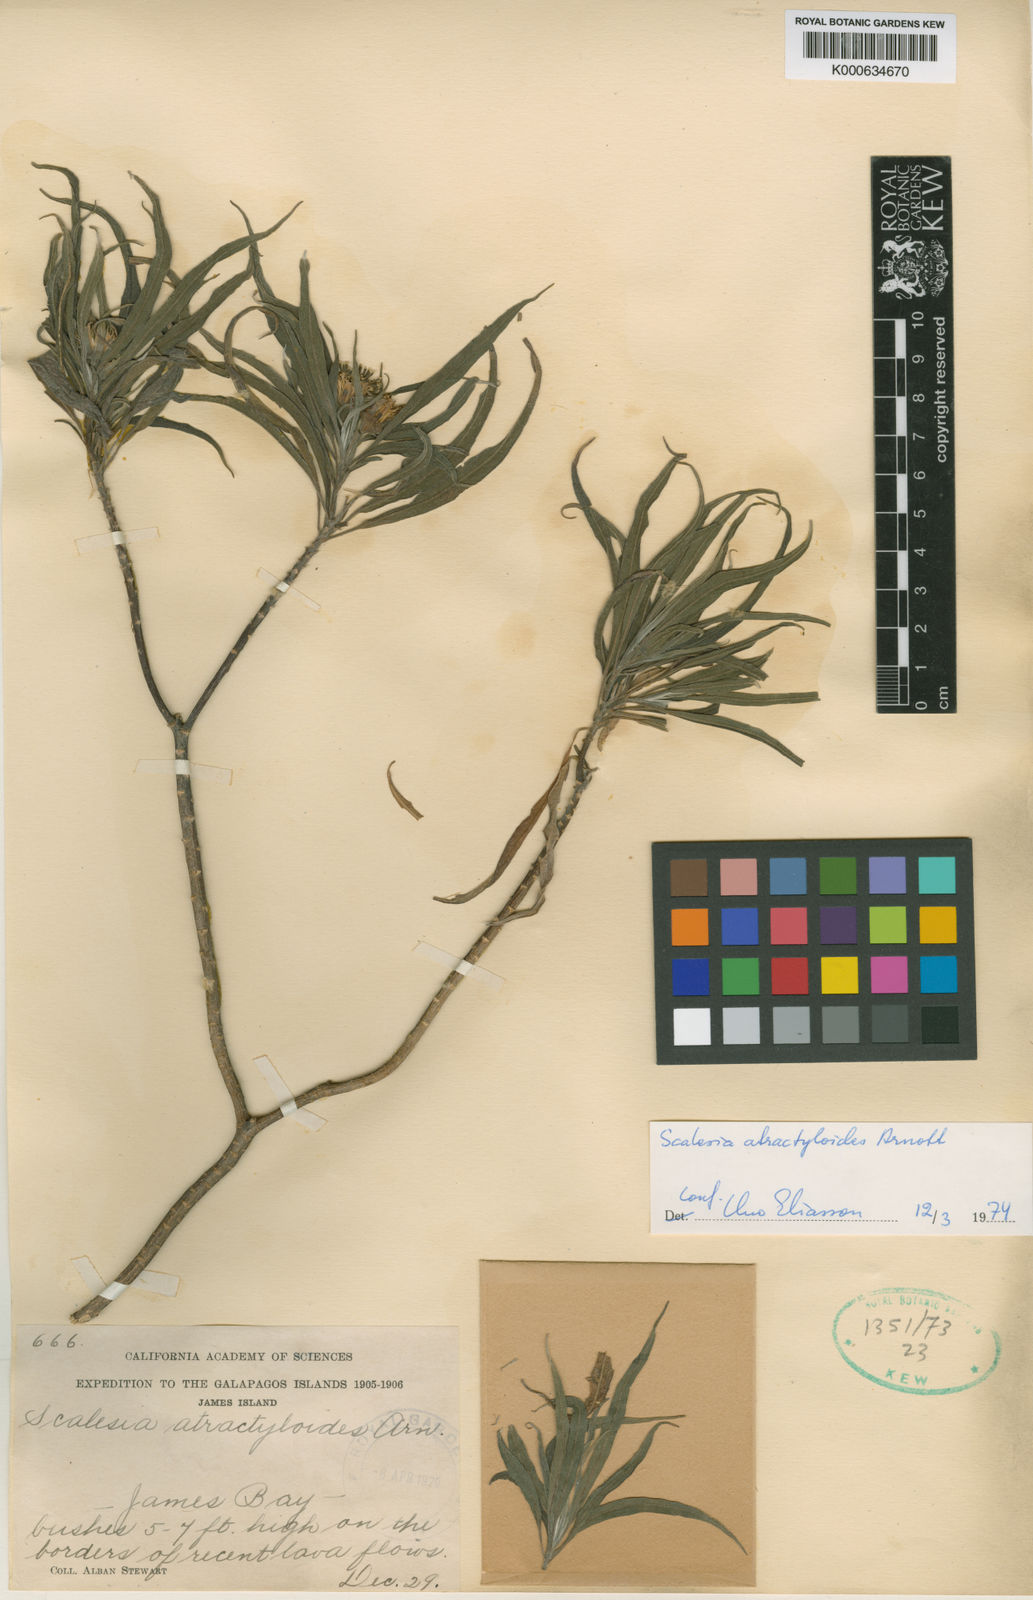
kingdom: Plantae
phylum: Tracheophyta
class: Magnoliopsida
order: Asterales
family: Asteraceae
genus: Scalesia
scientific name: Scalesia atractyloides
